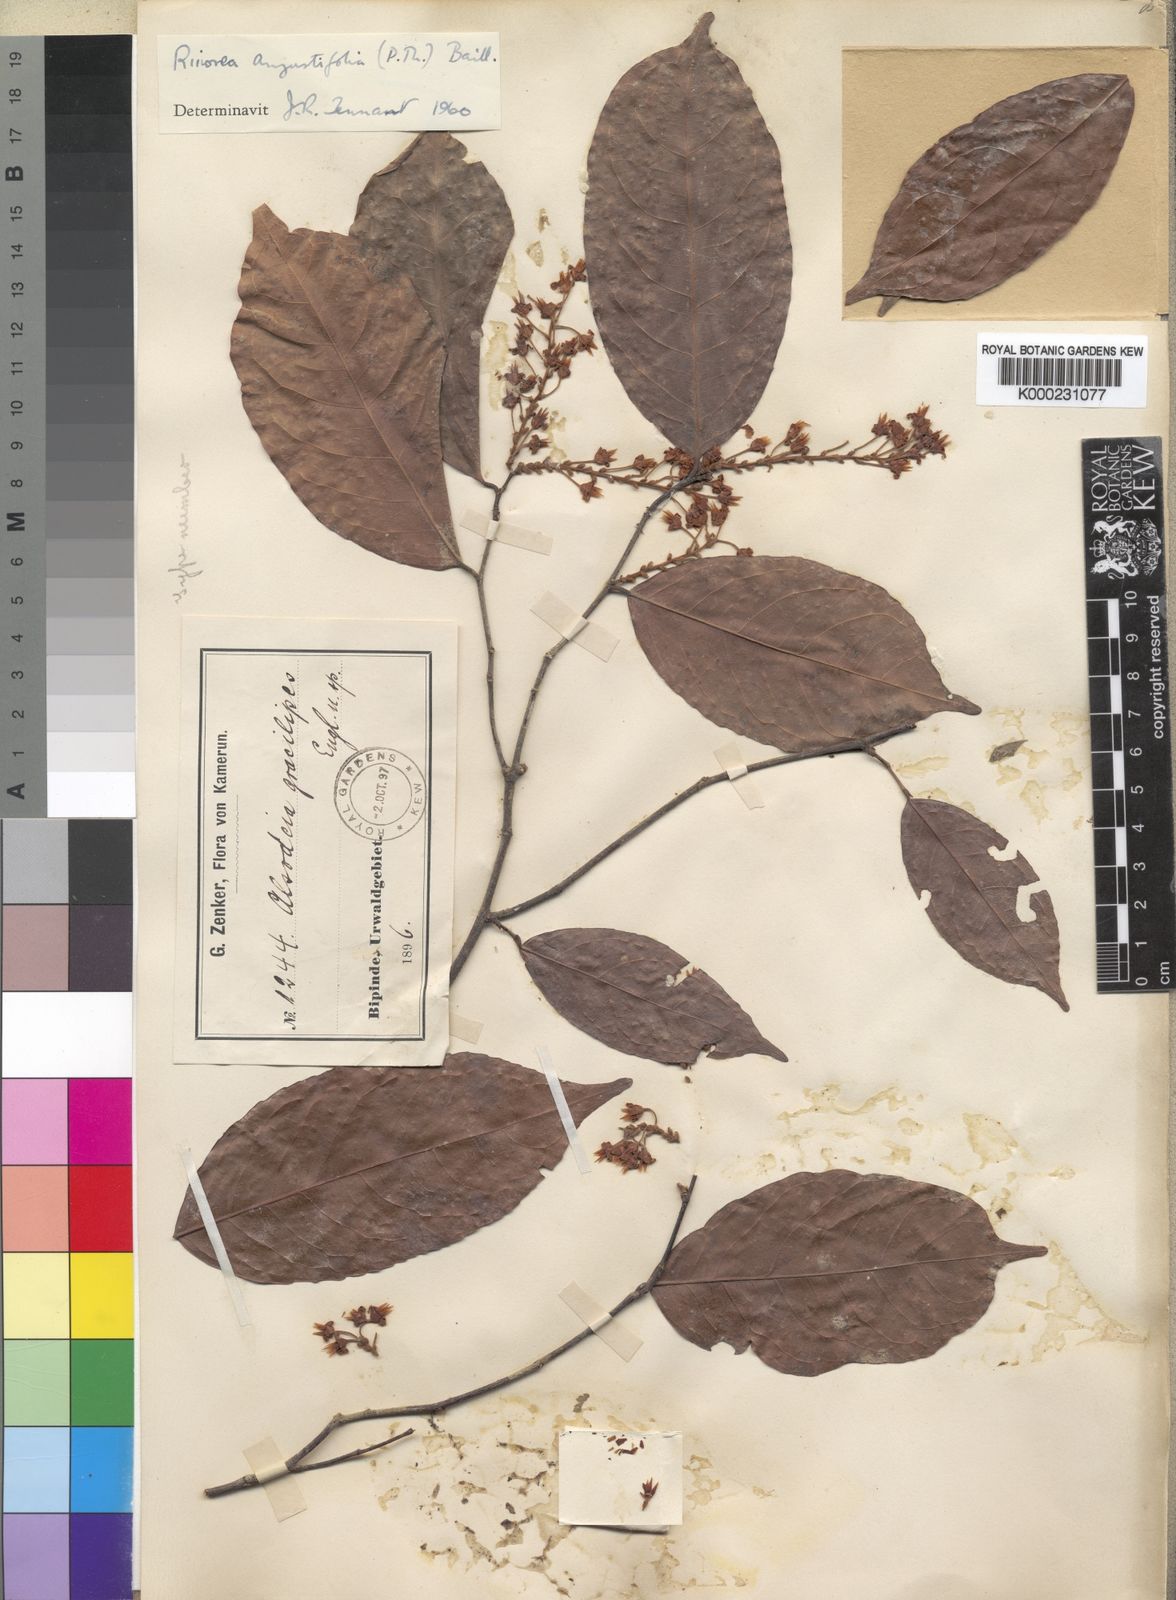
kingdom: Plantae
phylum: Tracheophyta
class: Magnoliopsida
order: Malpighiales
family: Violaceae
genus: Rinorea
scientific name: Rinorea angustifolia
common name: White violet-bush
